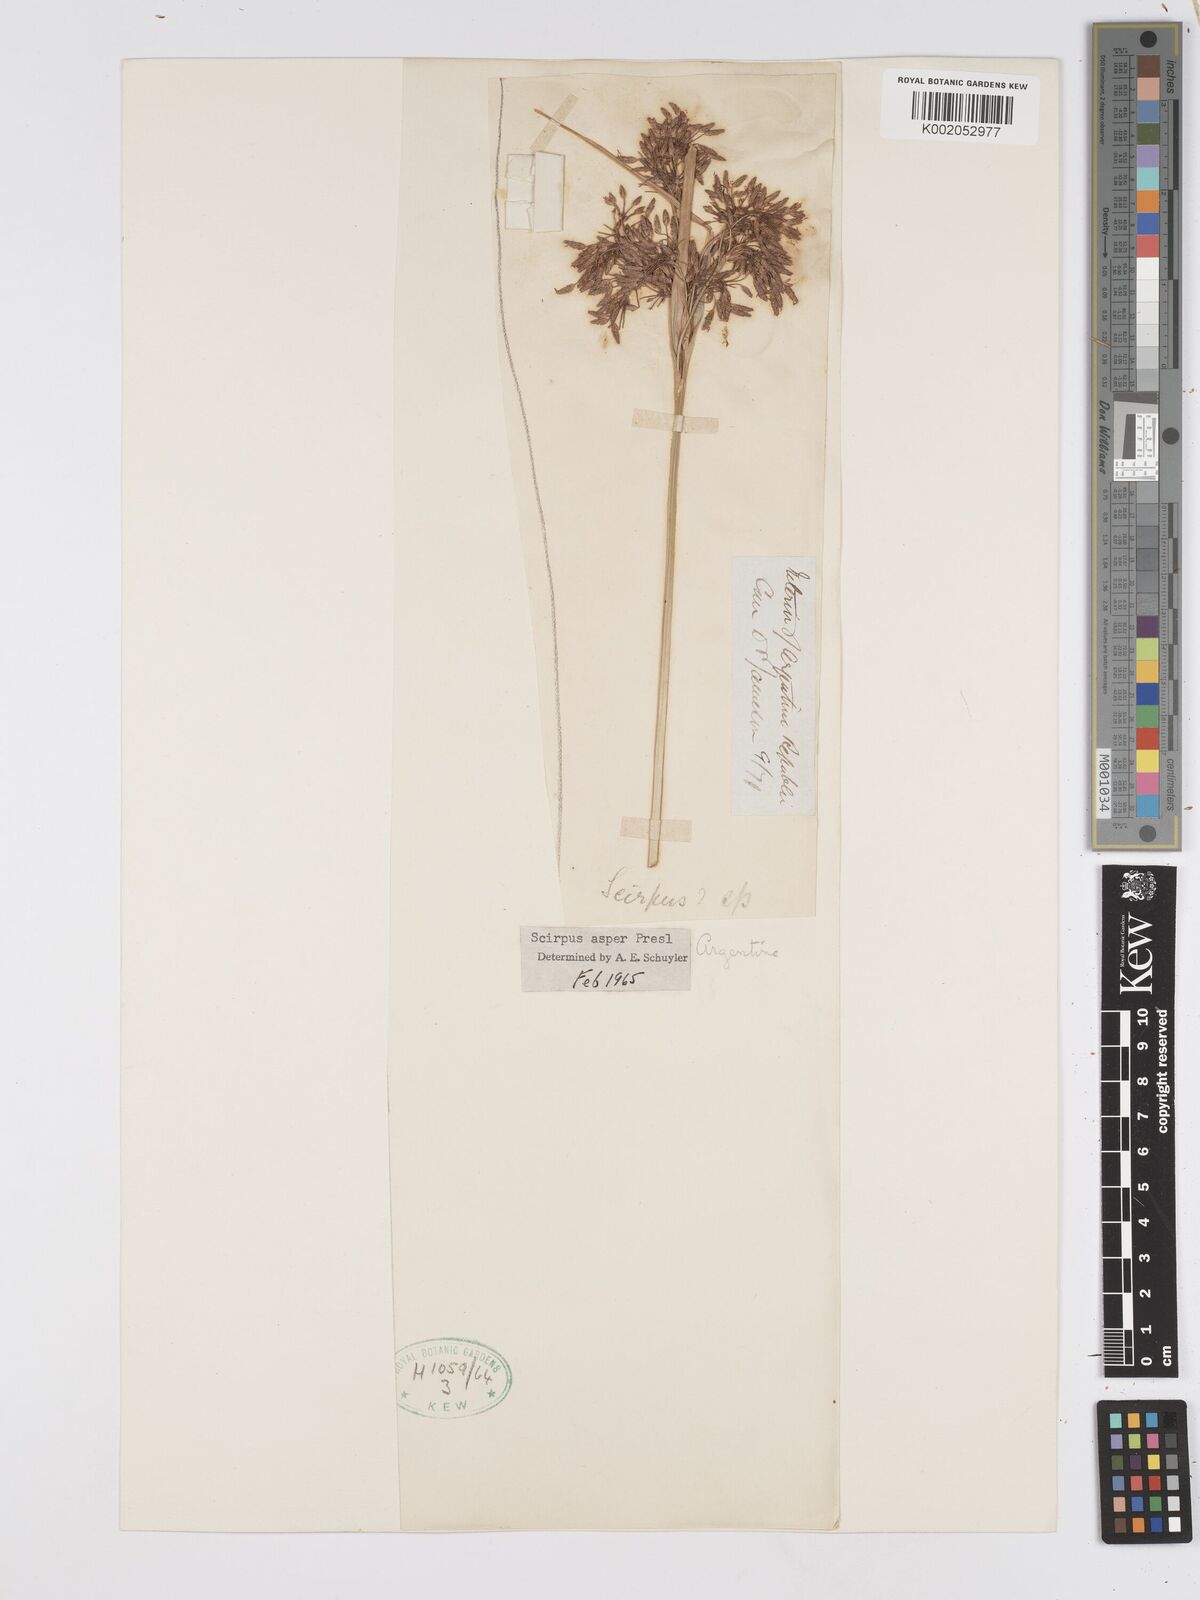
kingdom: Plantae
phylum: Tracheophyta
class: Liliopsida
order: Poales
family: Cyperaceae
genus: Rhodoscirpus
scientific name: Rhodoscirpus asper
